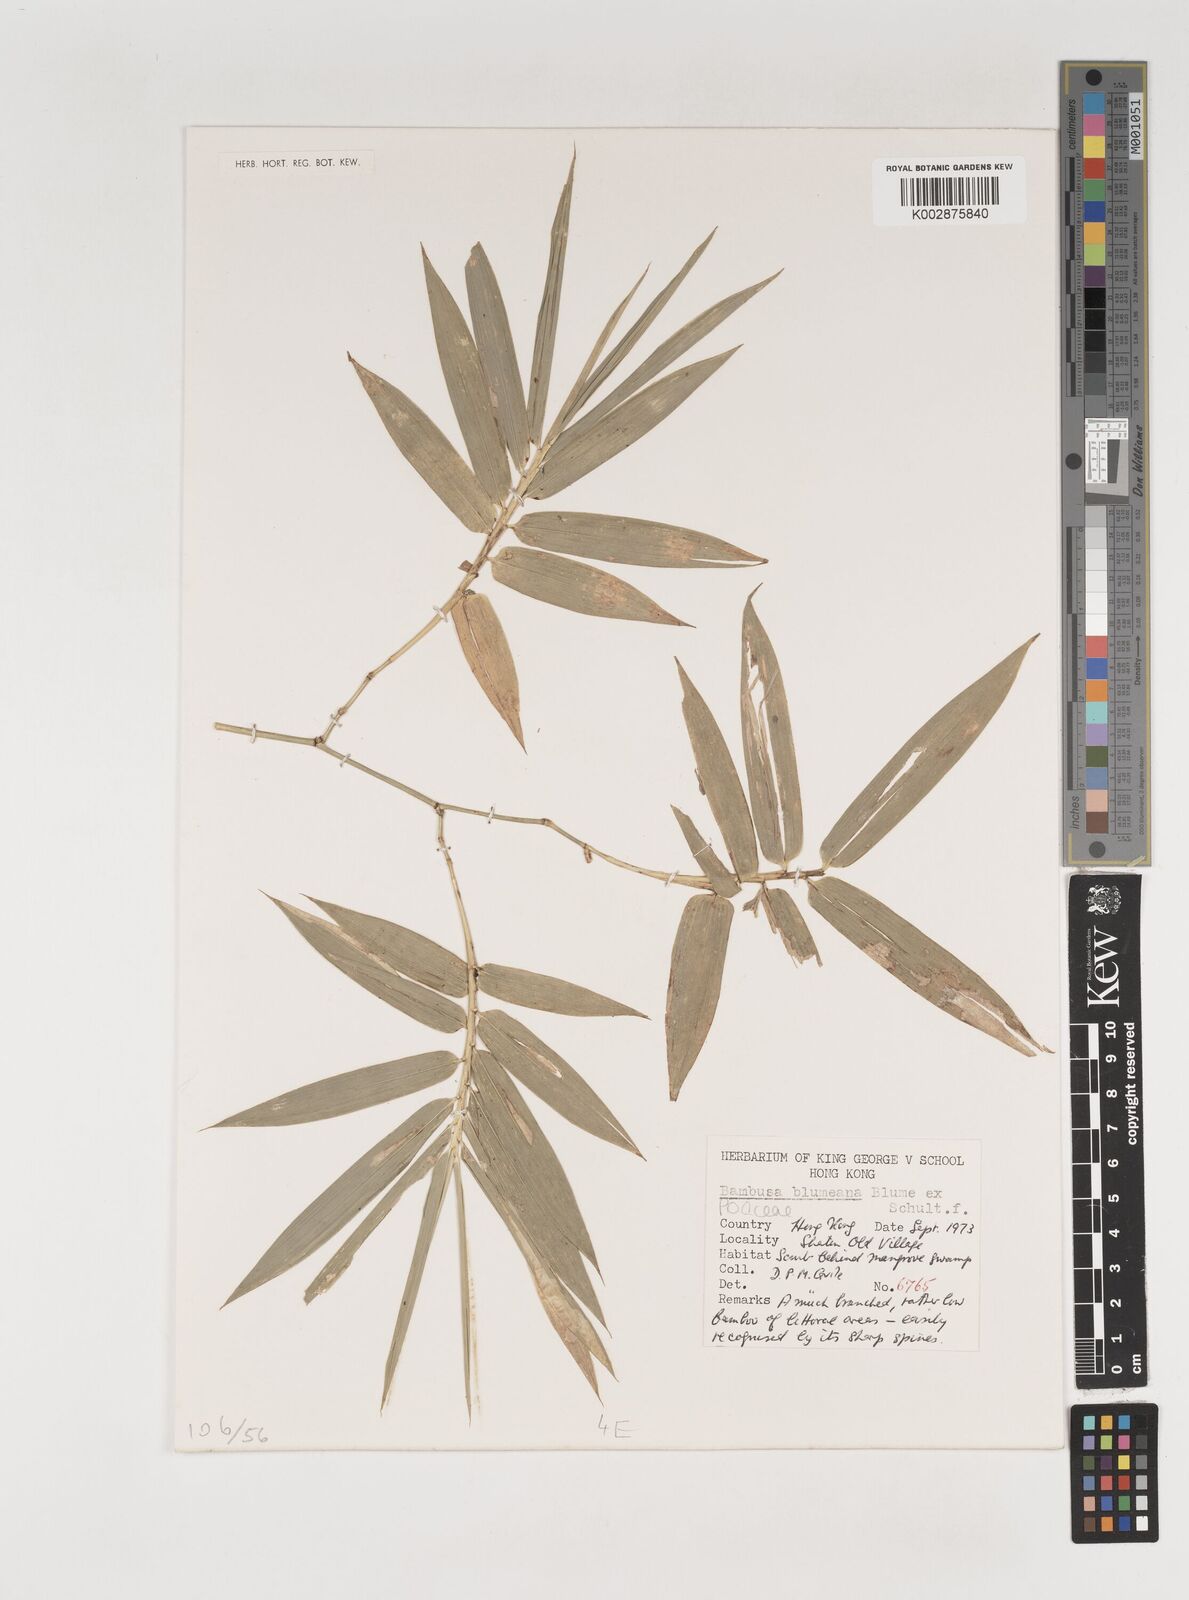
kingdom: Plantae
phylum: Tracheophyta
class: Liliopsida
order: Poales
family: Poaceae
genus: Bambusa
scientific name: Bambusa spinosa
